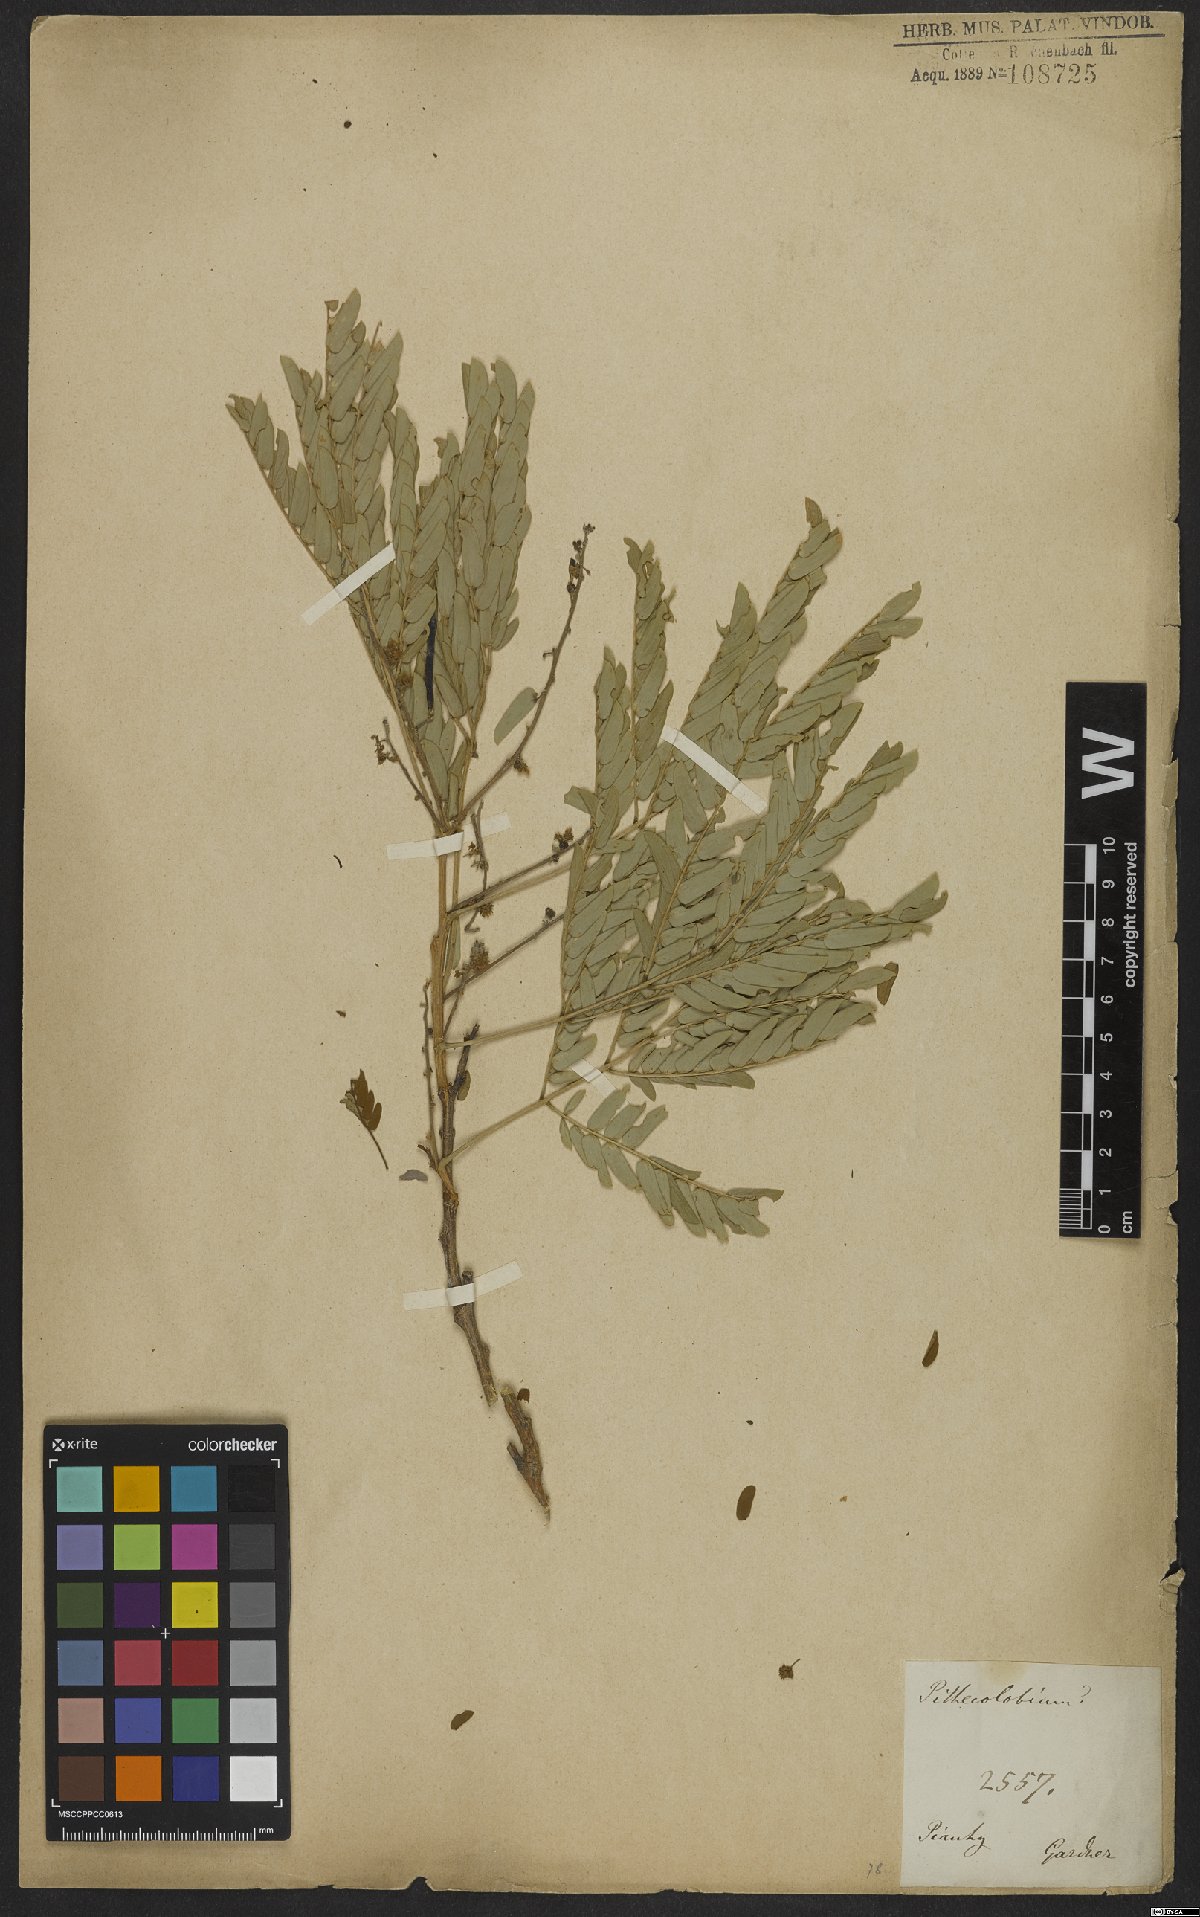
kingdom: Plantae
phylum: Tracheophyta
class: Magnoliopsida
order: Fabales
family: Fabaceae
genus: Albizia
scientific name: Albizia multiflora
